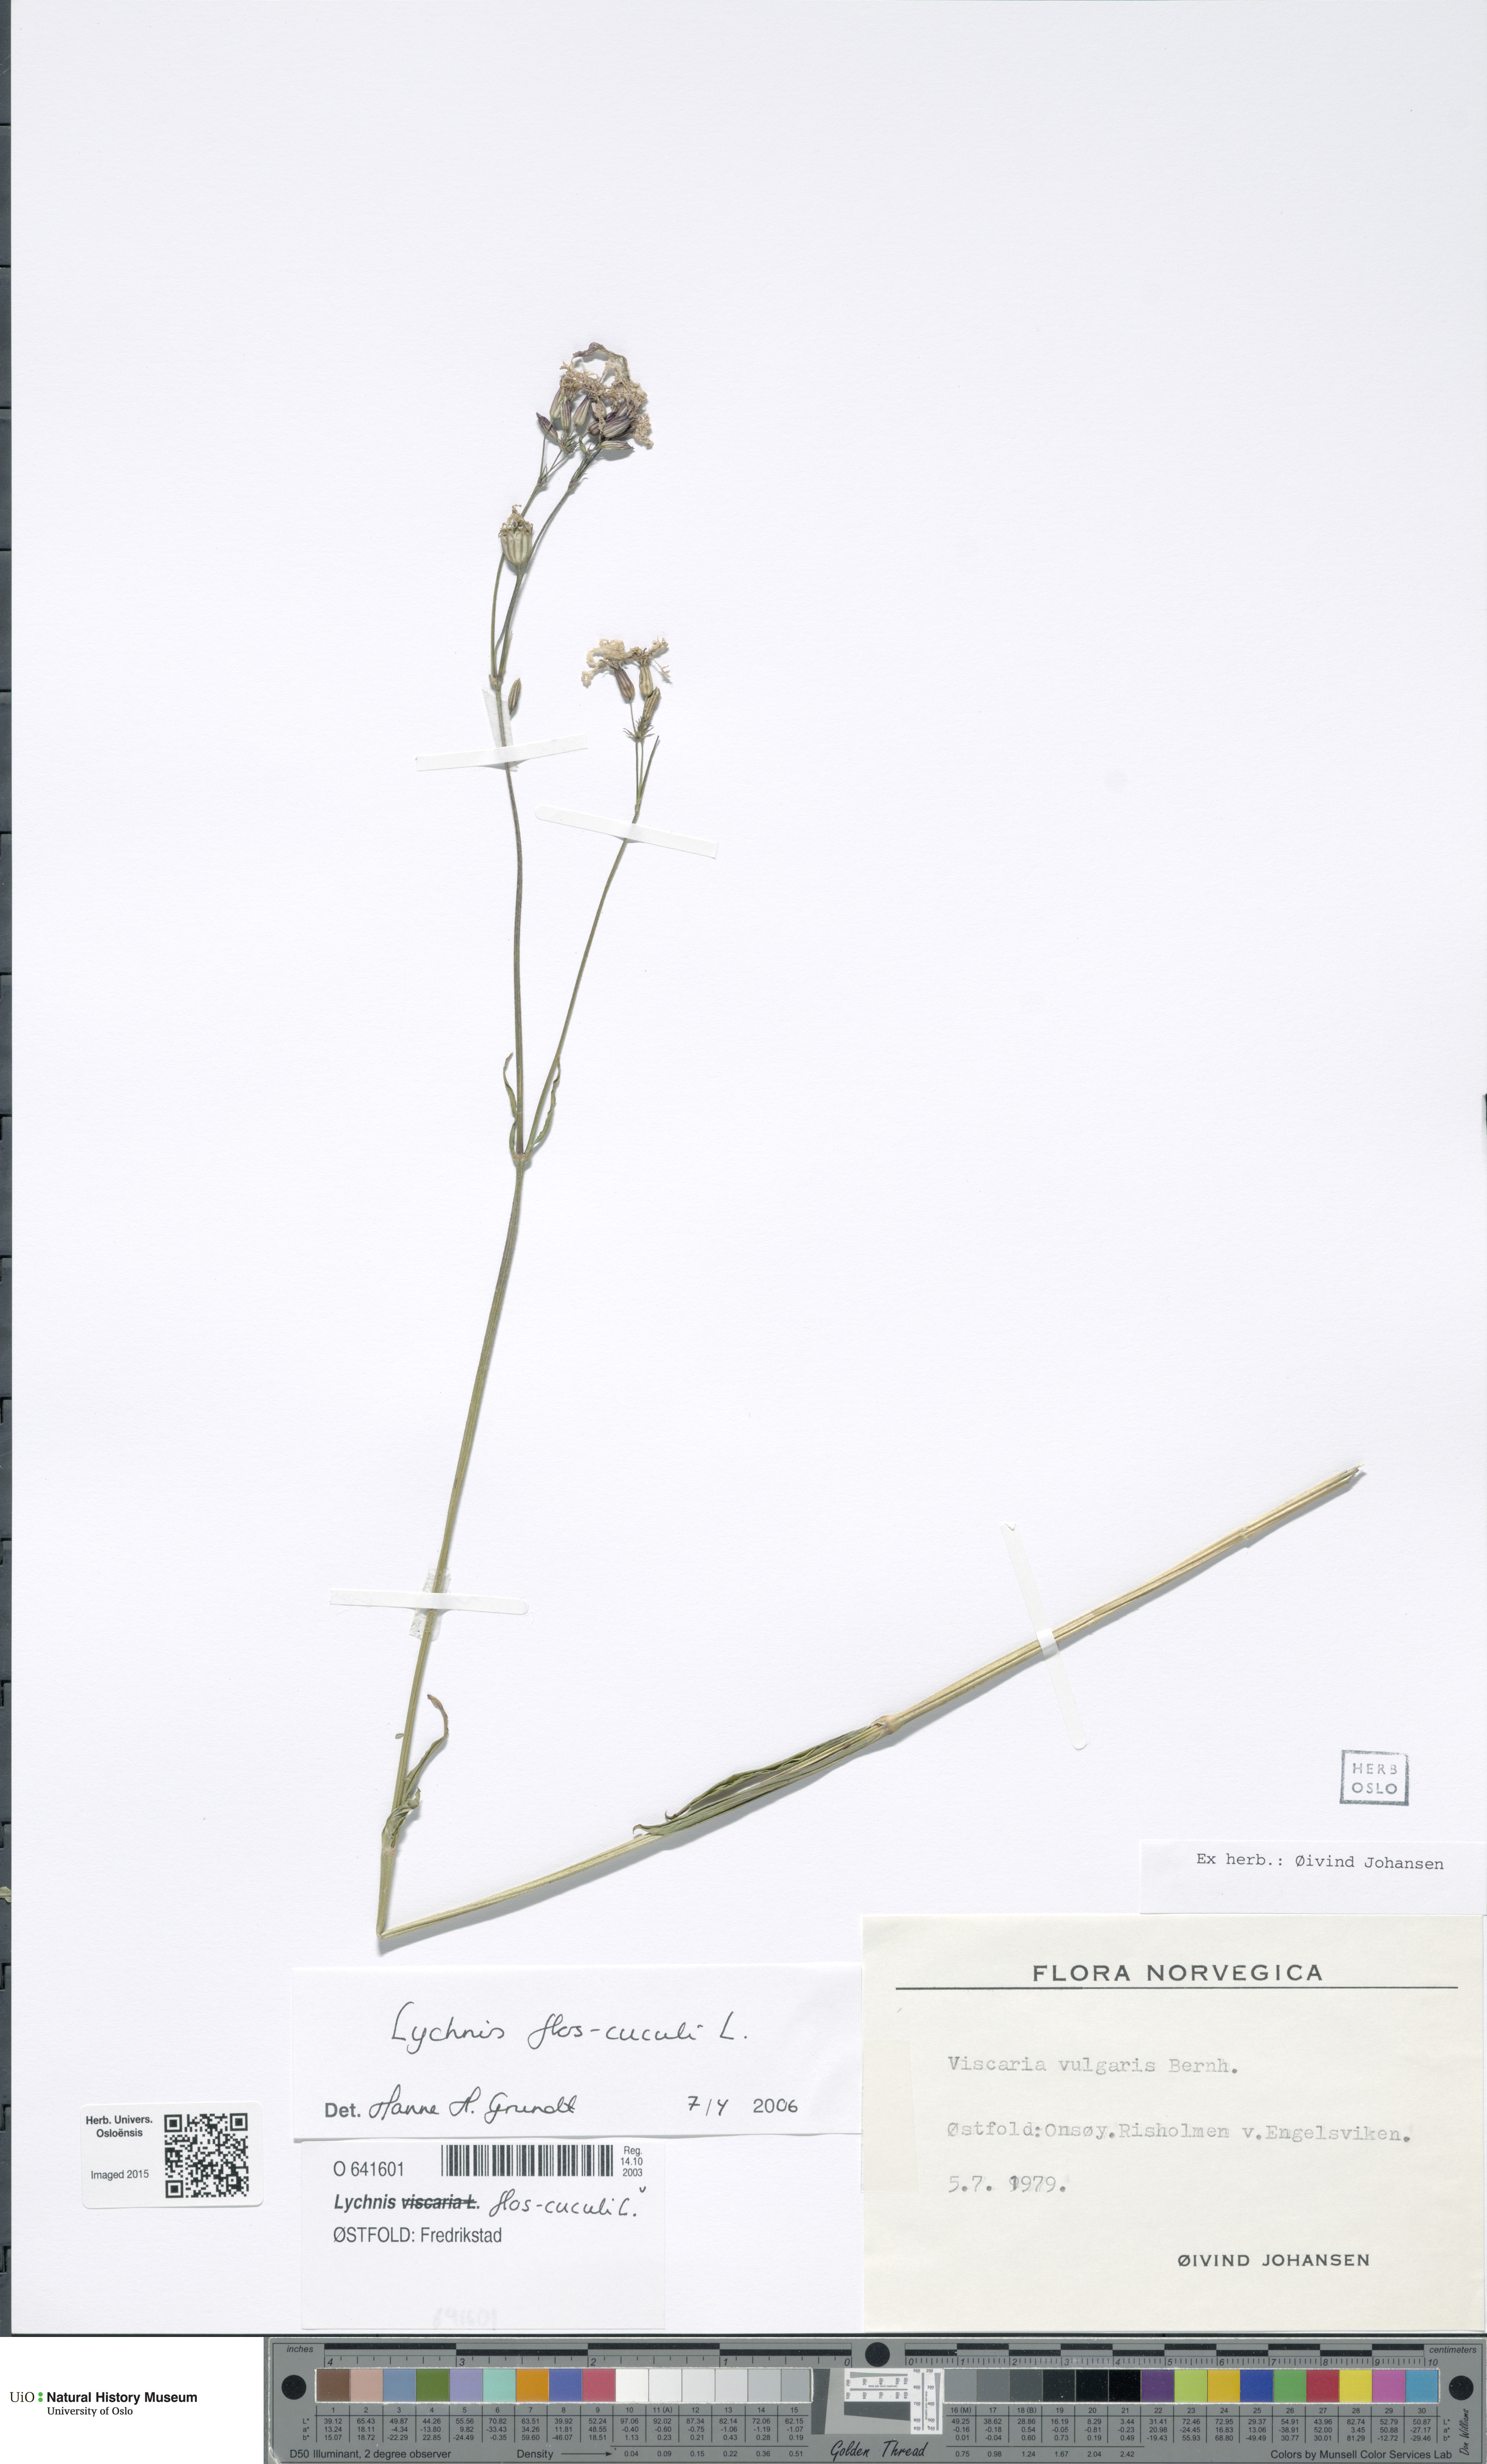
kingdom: Plantae
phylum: Tracheophyta
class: Magnoliopsida
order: Caryophyllales
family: Caryophyllaceae
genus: Silene
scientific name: Silene flos-cuculi
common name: Ragged-robin
